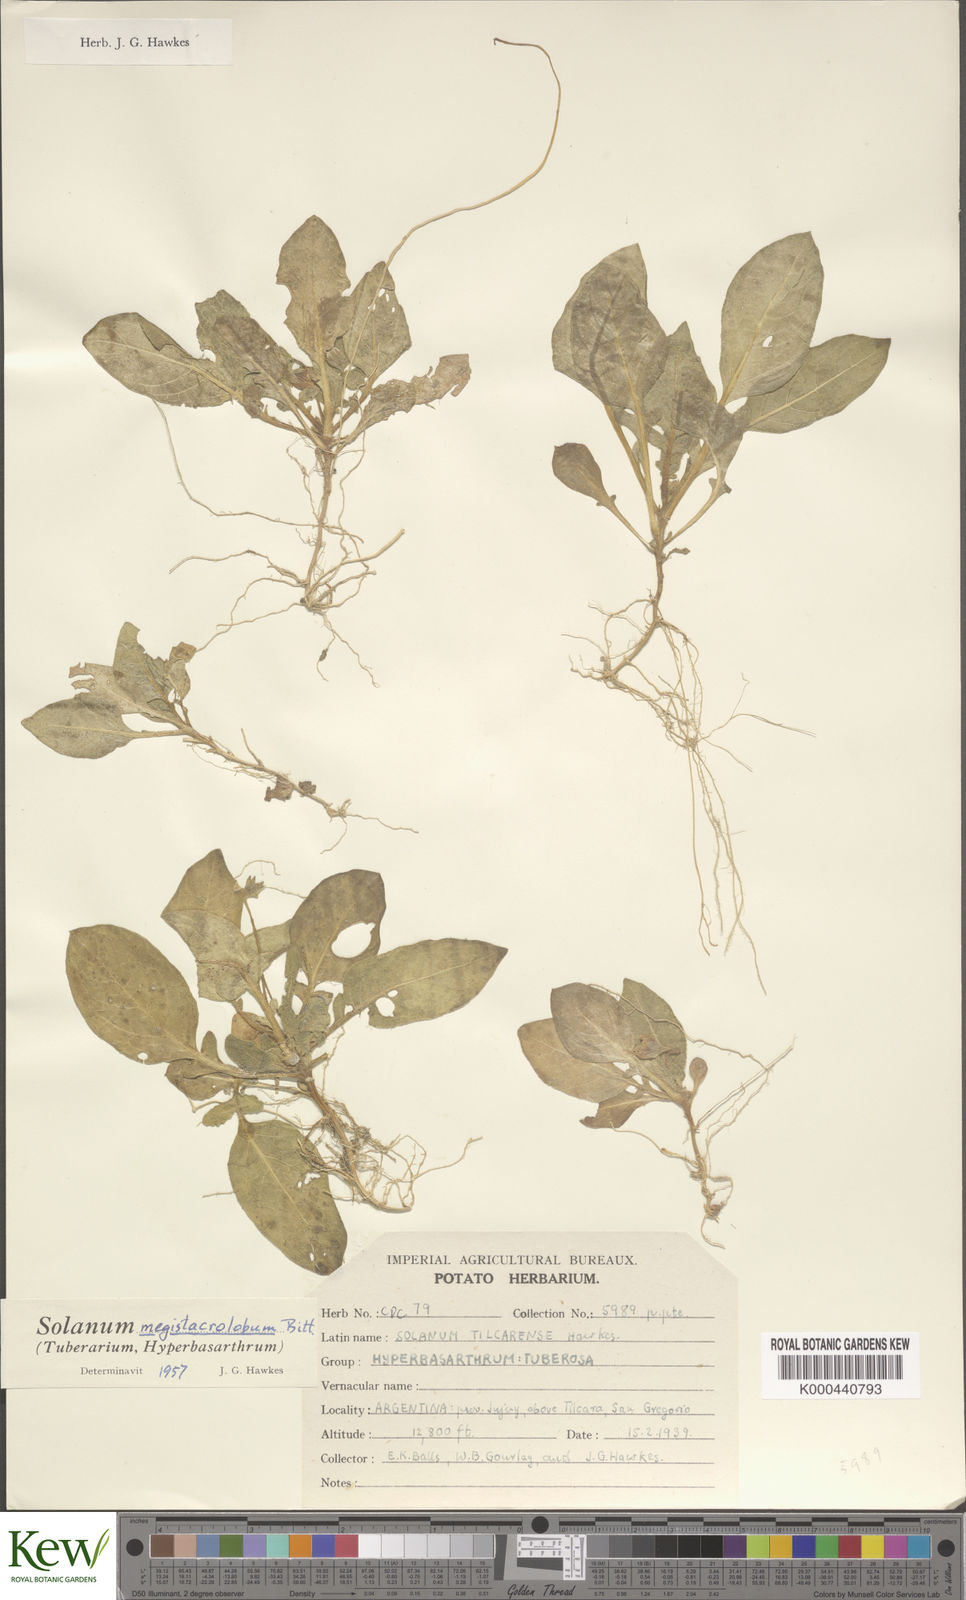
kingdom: Plantae
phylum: Tracheophyta
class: Magnoliopsida
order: Solanales
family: Solanaceae
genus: Solanum
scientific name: Solanum boliviense
